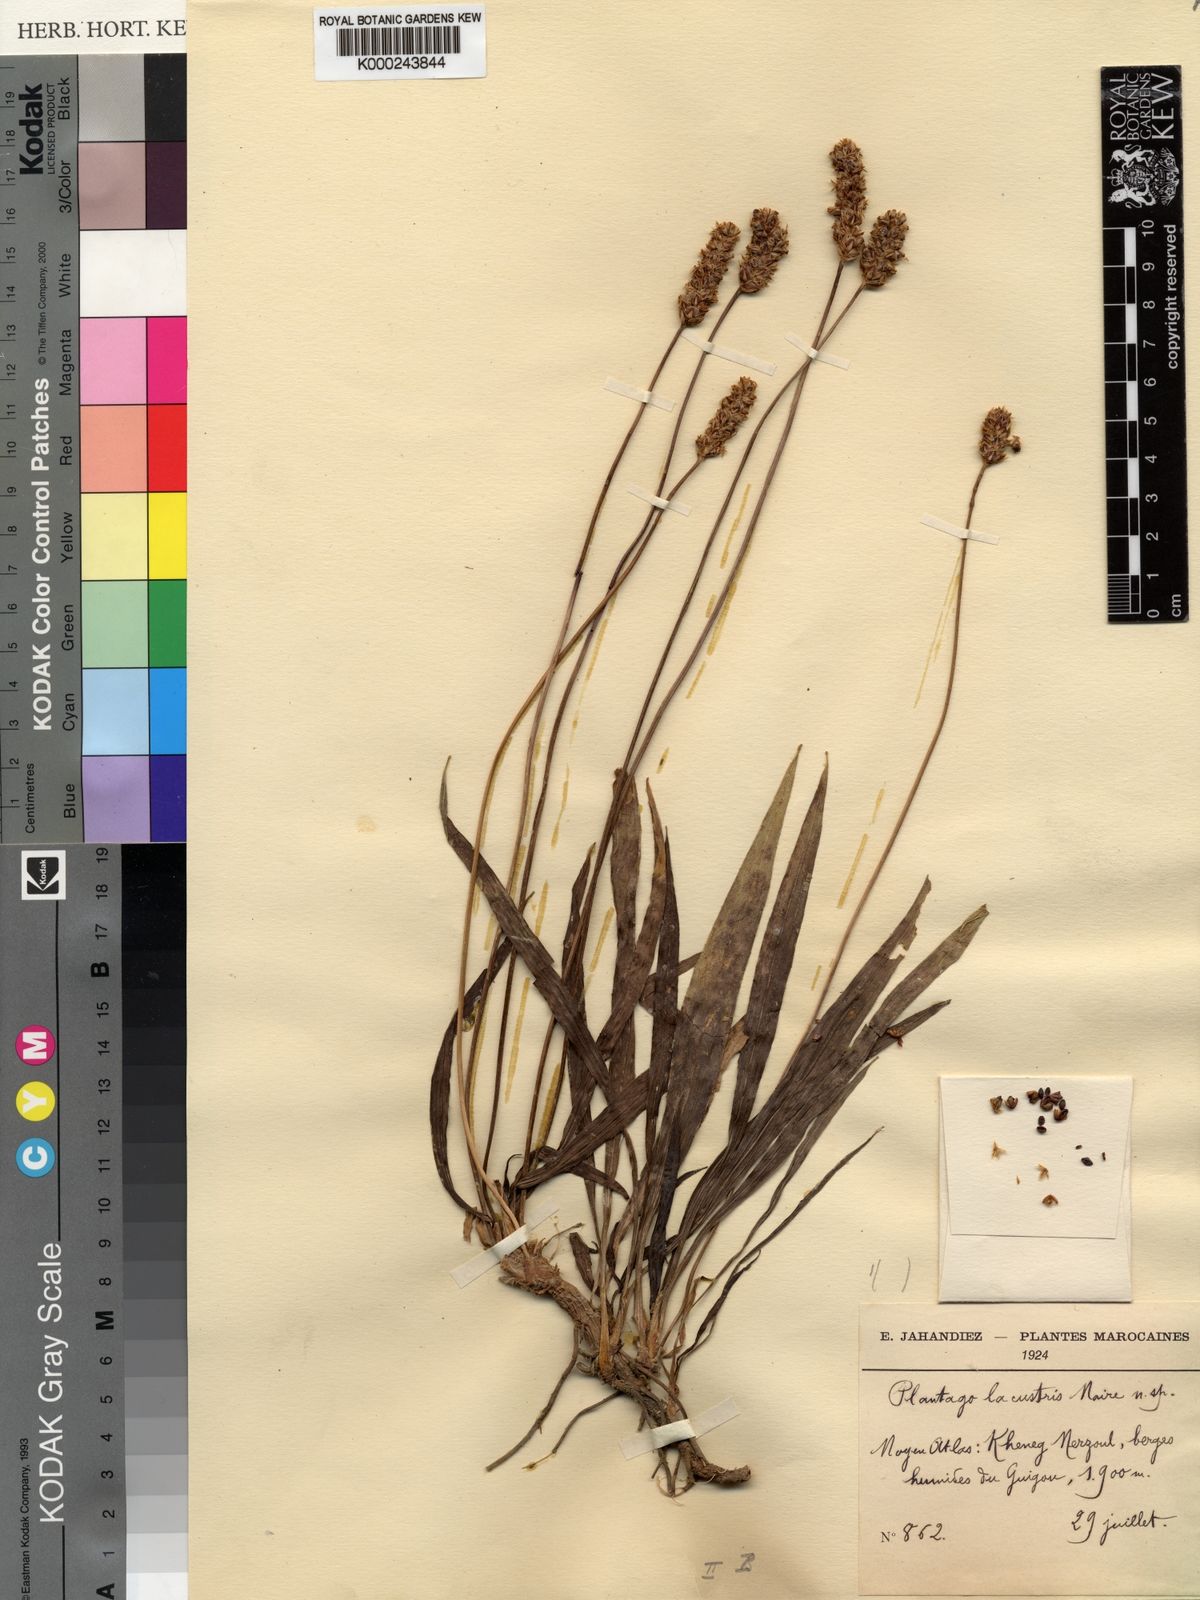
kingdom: Plantae
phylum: Tracheophyta
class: Magnoliopsida
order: Lamiales
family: Plantaginaceae
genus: Plantago
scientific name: Plantago
